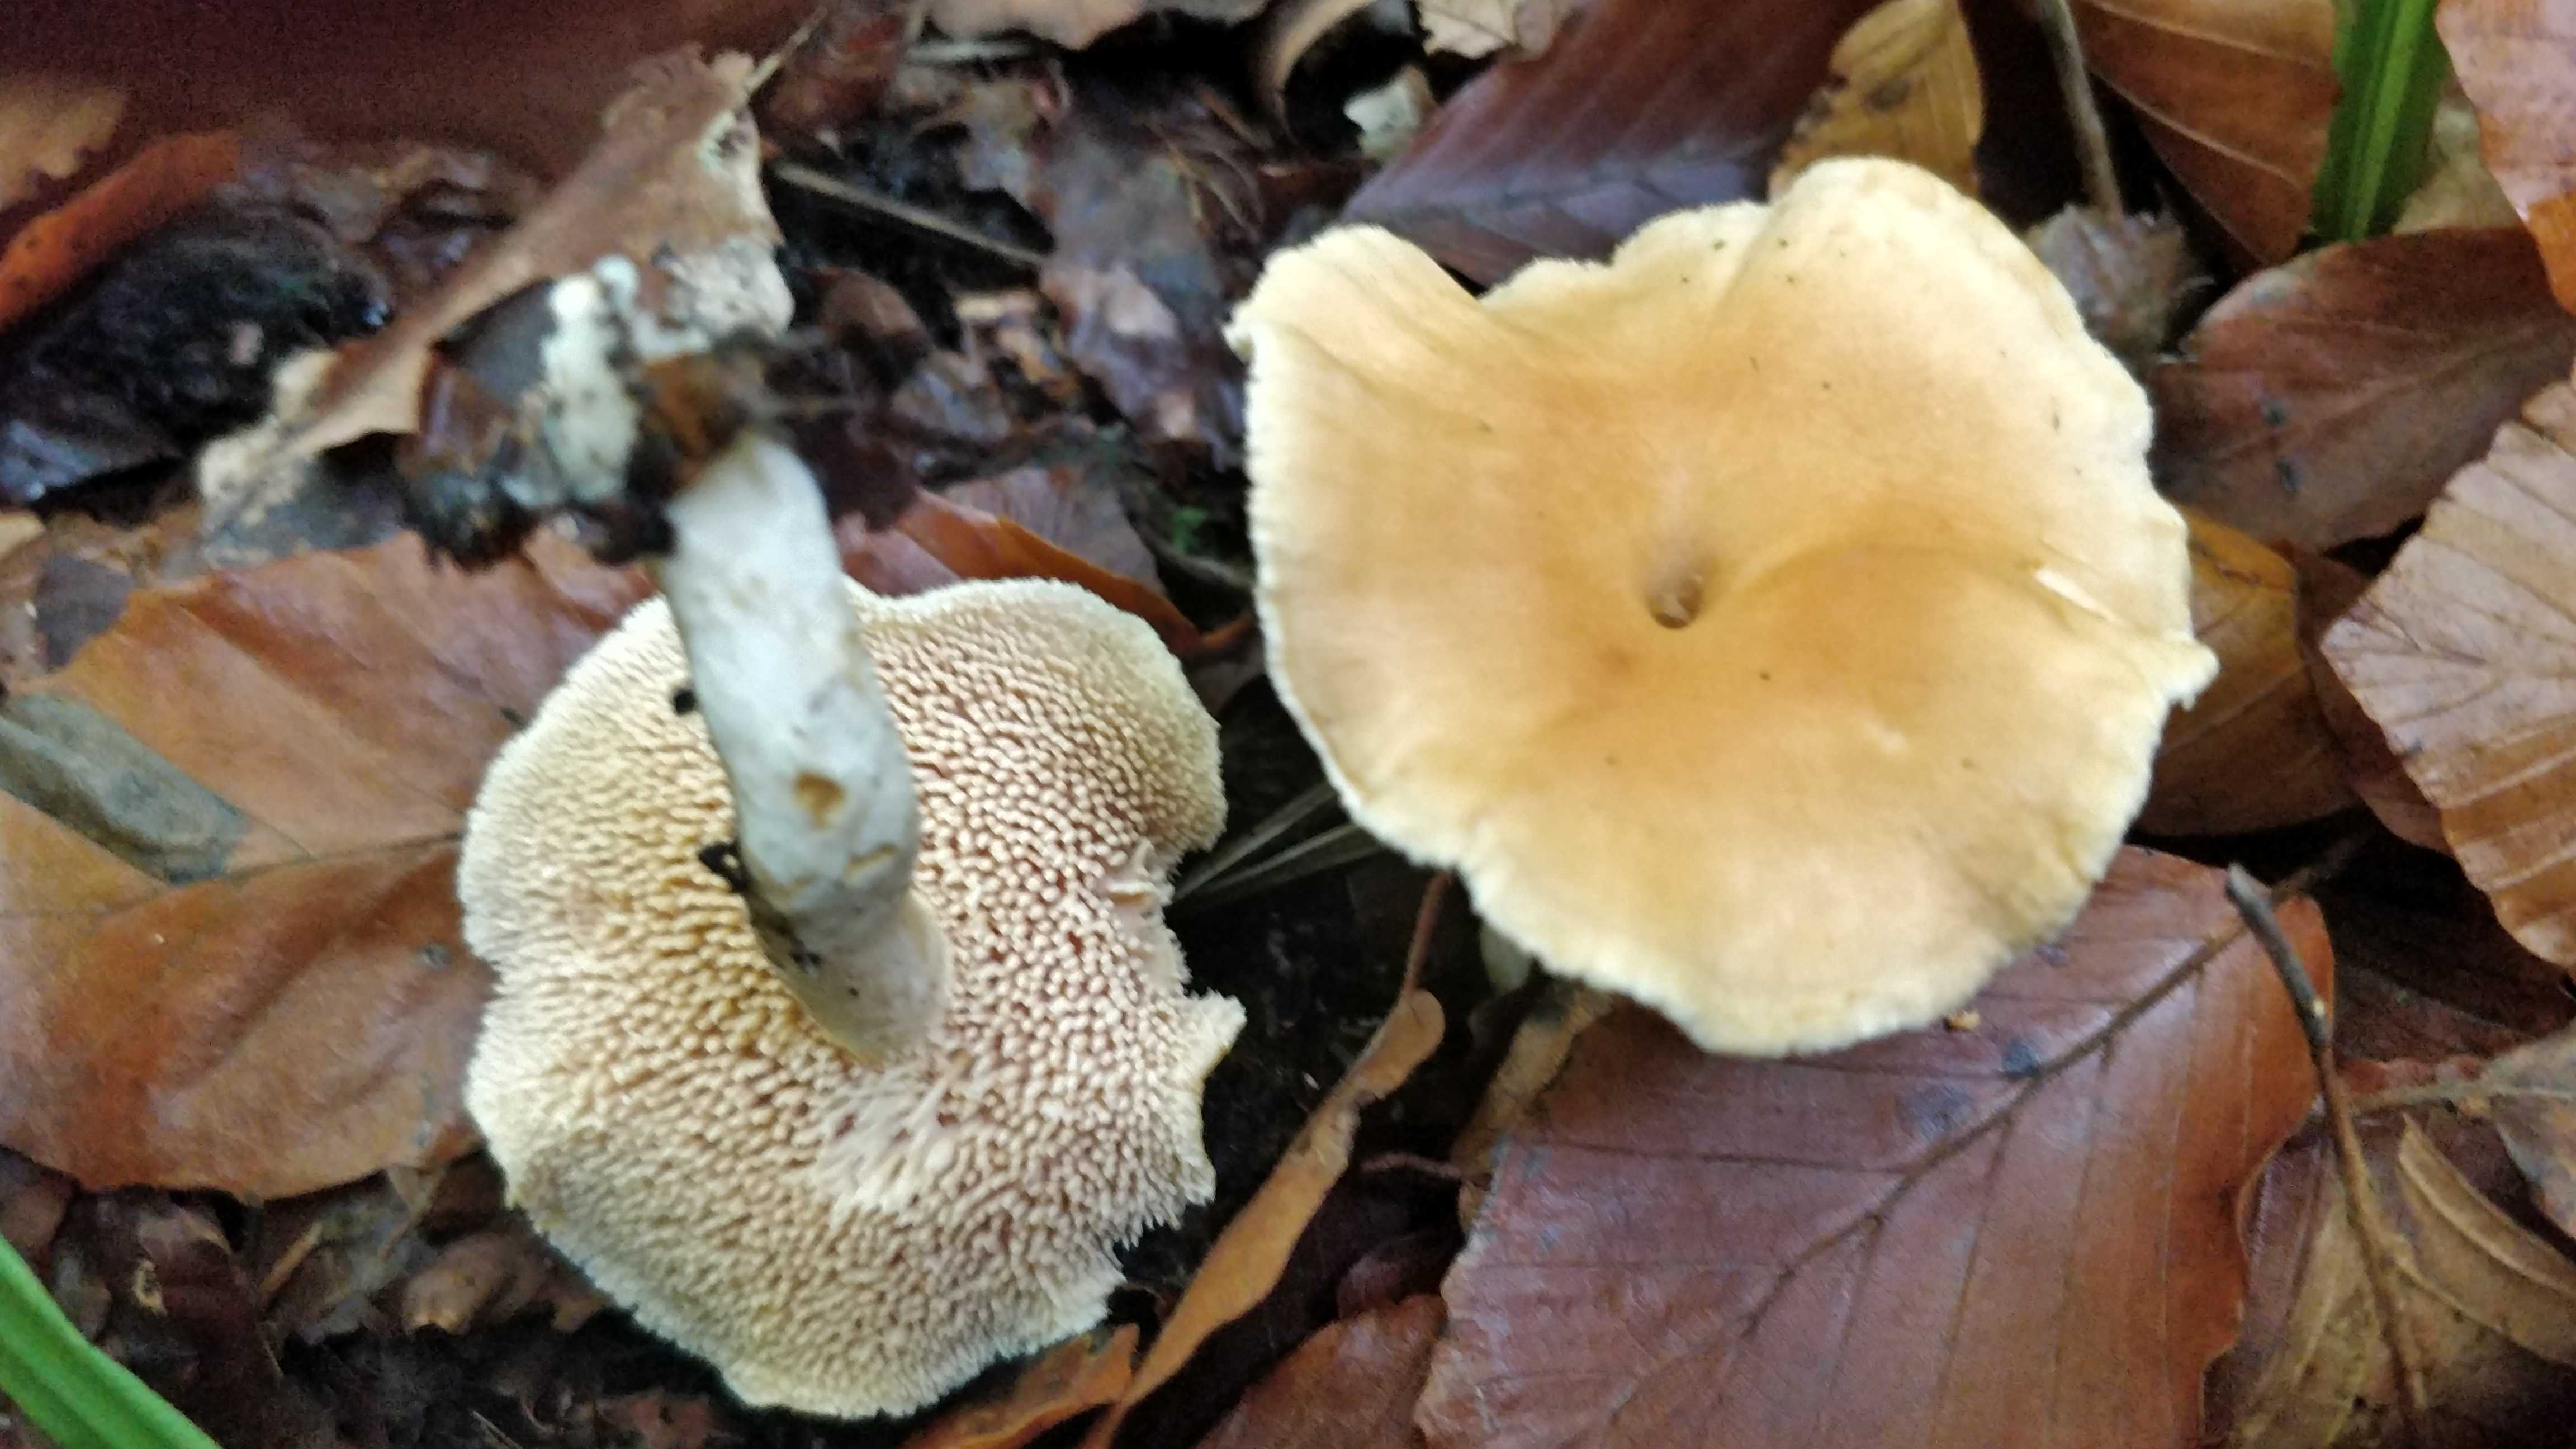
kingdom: Fungi
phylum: Basidiomycota
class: Agaricomycetes
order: Cantharellales
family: Hydnaceae
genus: Hydnum
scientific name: Hydnum umbilicatum
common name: navle-pigsvamp
